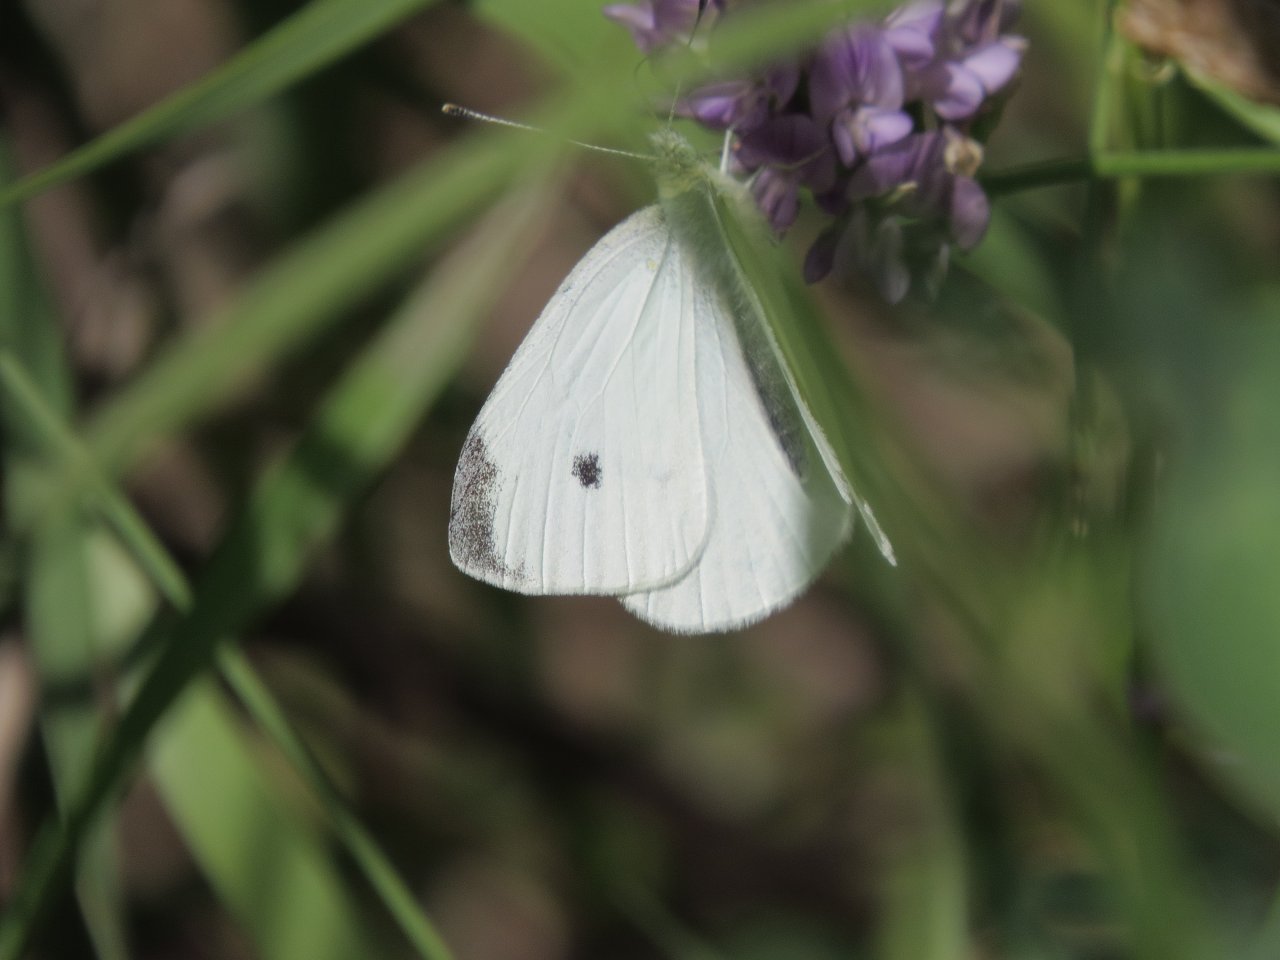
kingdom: Animalia
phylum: Arthropoda
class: Insecta
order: Lepidoptera
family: Pieridae
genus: Pieris
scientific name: Pieris rapae
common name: Cabbage White
